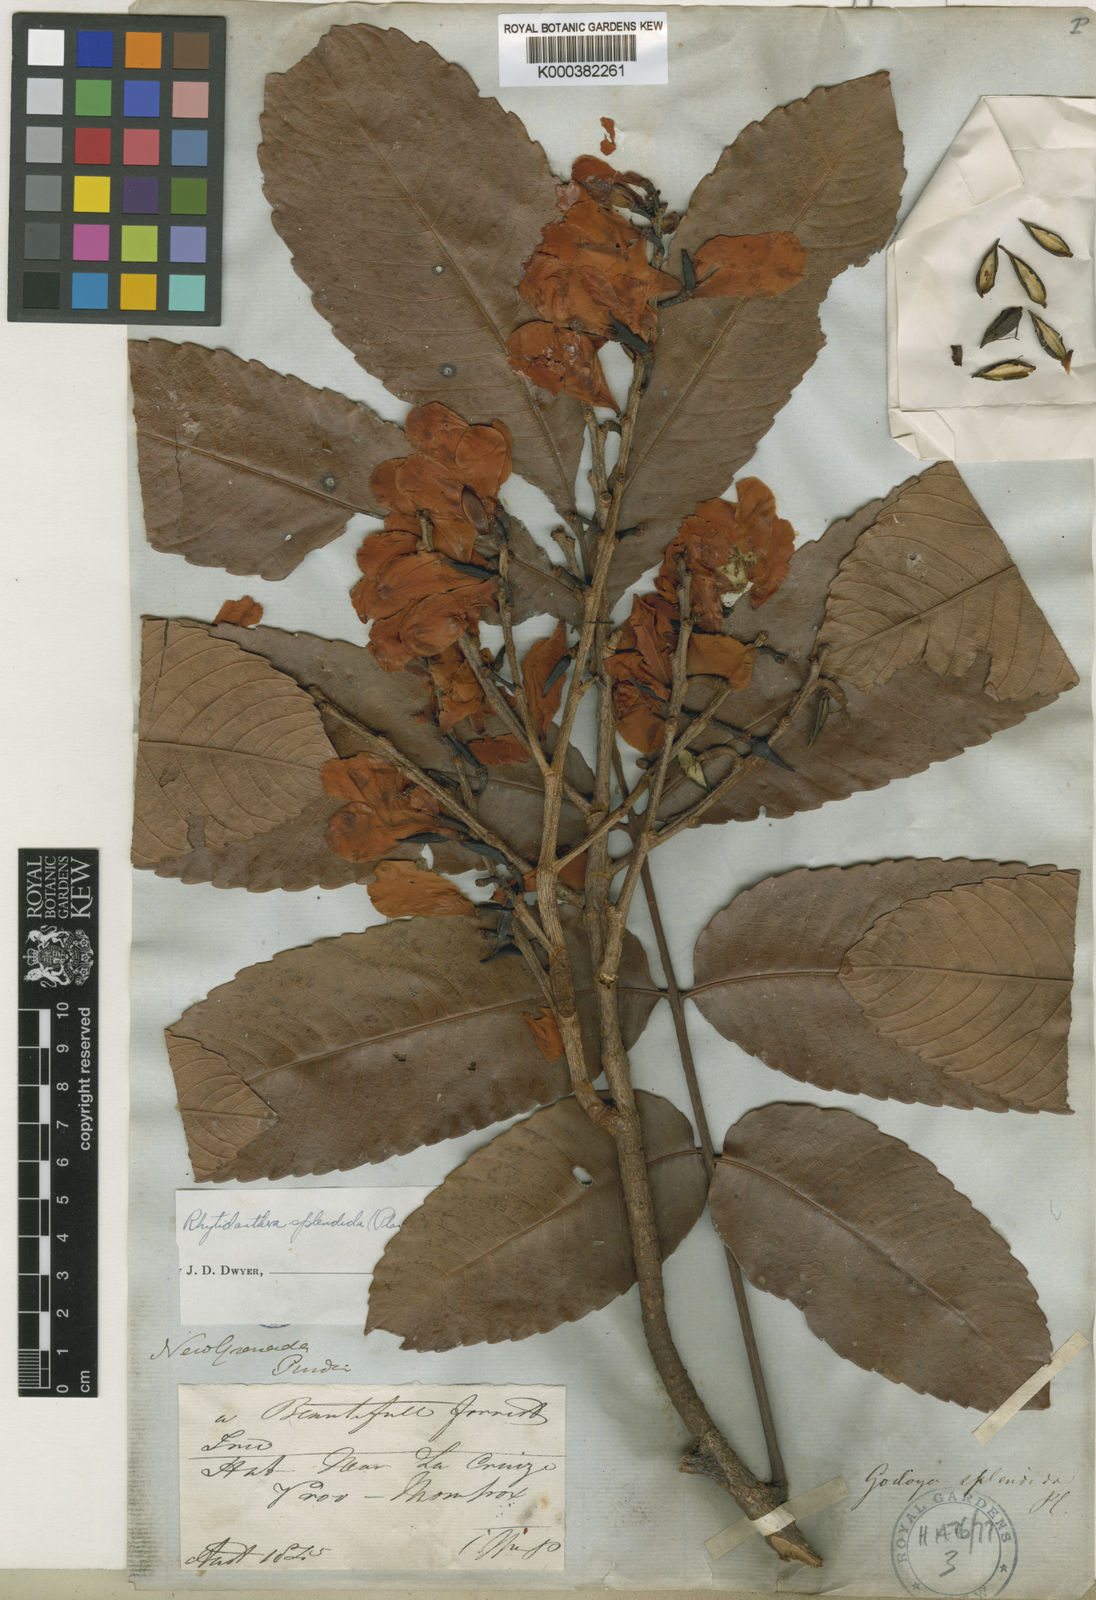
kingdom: Plantae
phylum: Tracheophyta
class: Magnoliopsida
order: Malpighiales
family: Ochnaceae
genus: Rhytidanthera
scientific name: Rhytidanthera splendida
